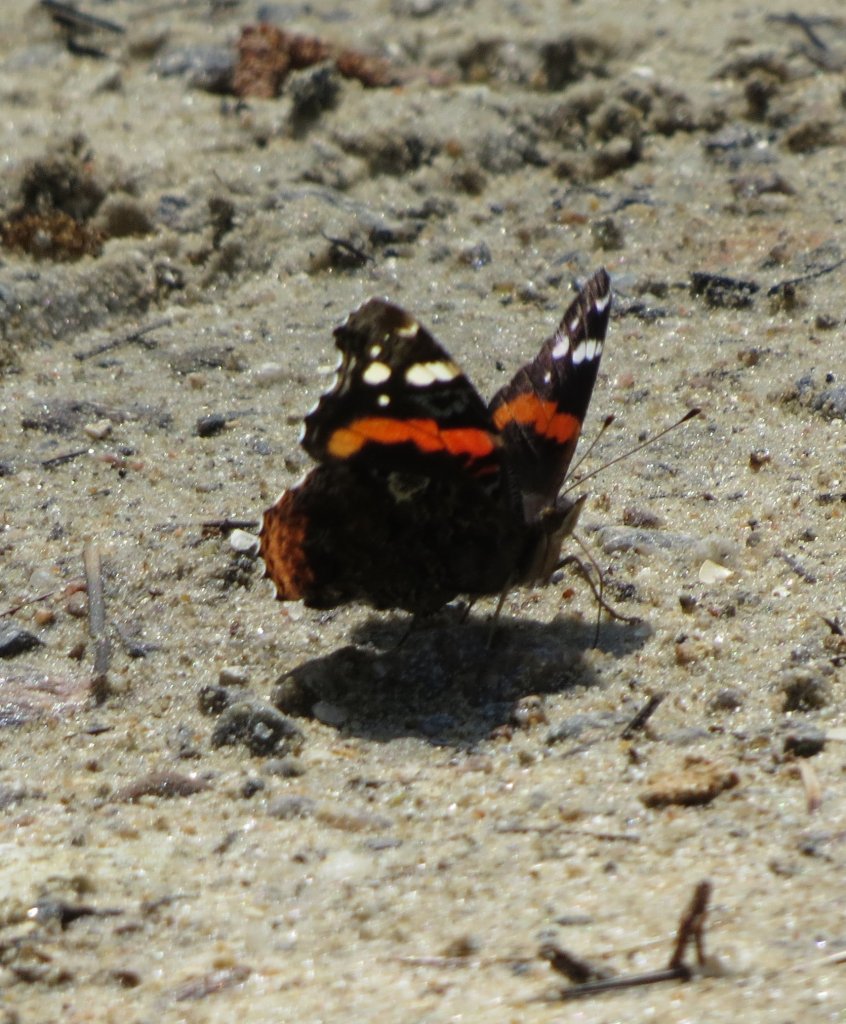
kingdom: Animalia
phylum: Arthropoda
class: Insecta
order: Lepidoptera
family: Nymphalidae
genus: Vanessa
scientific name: Vanessa atalanta
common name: Red Admiral
